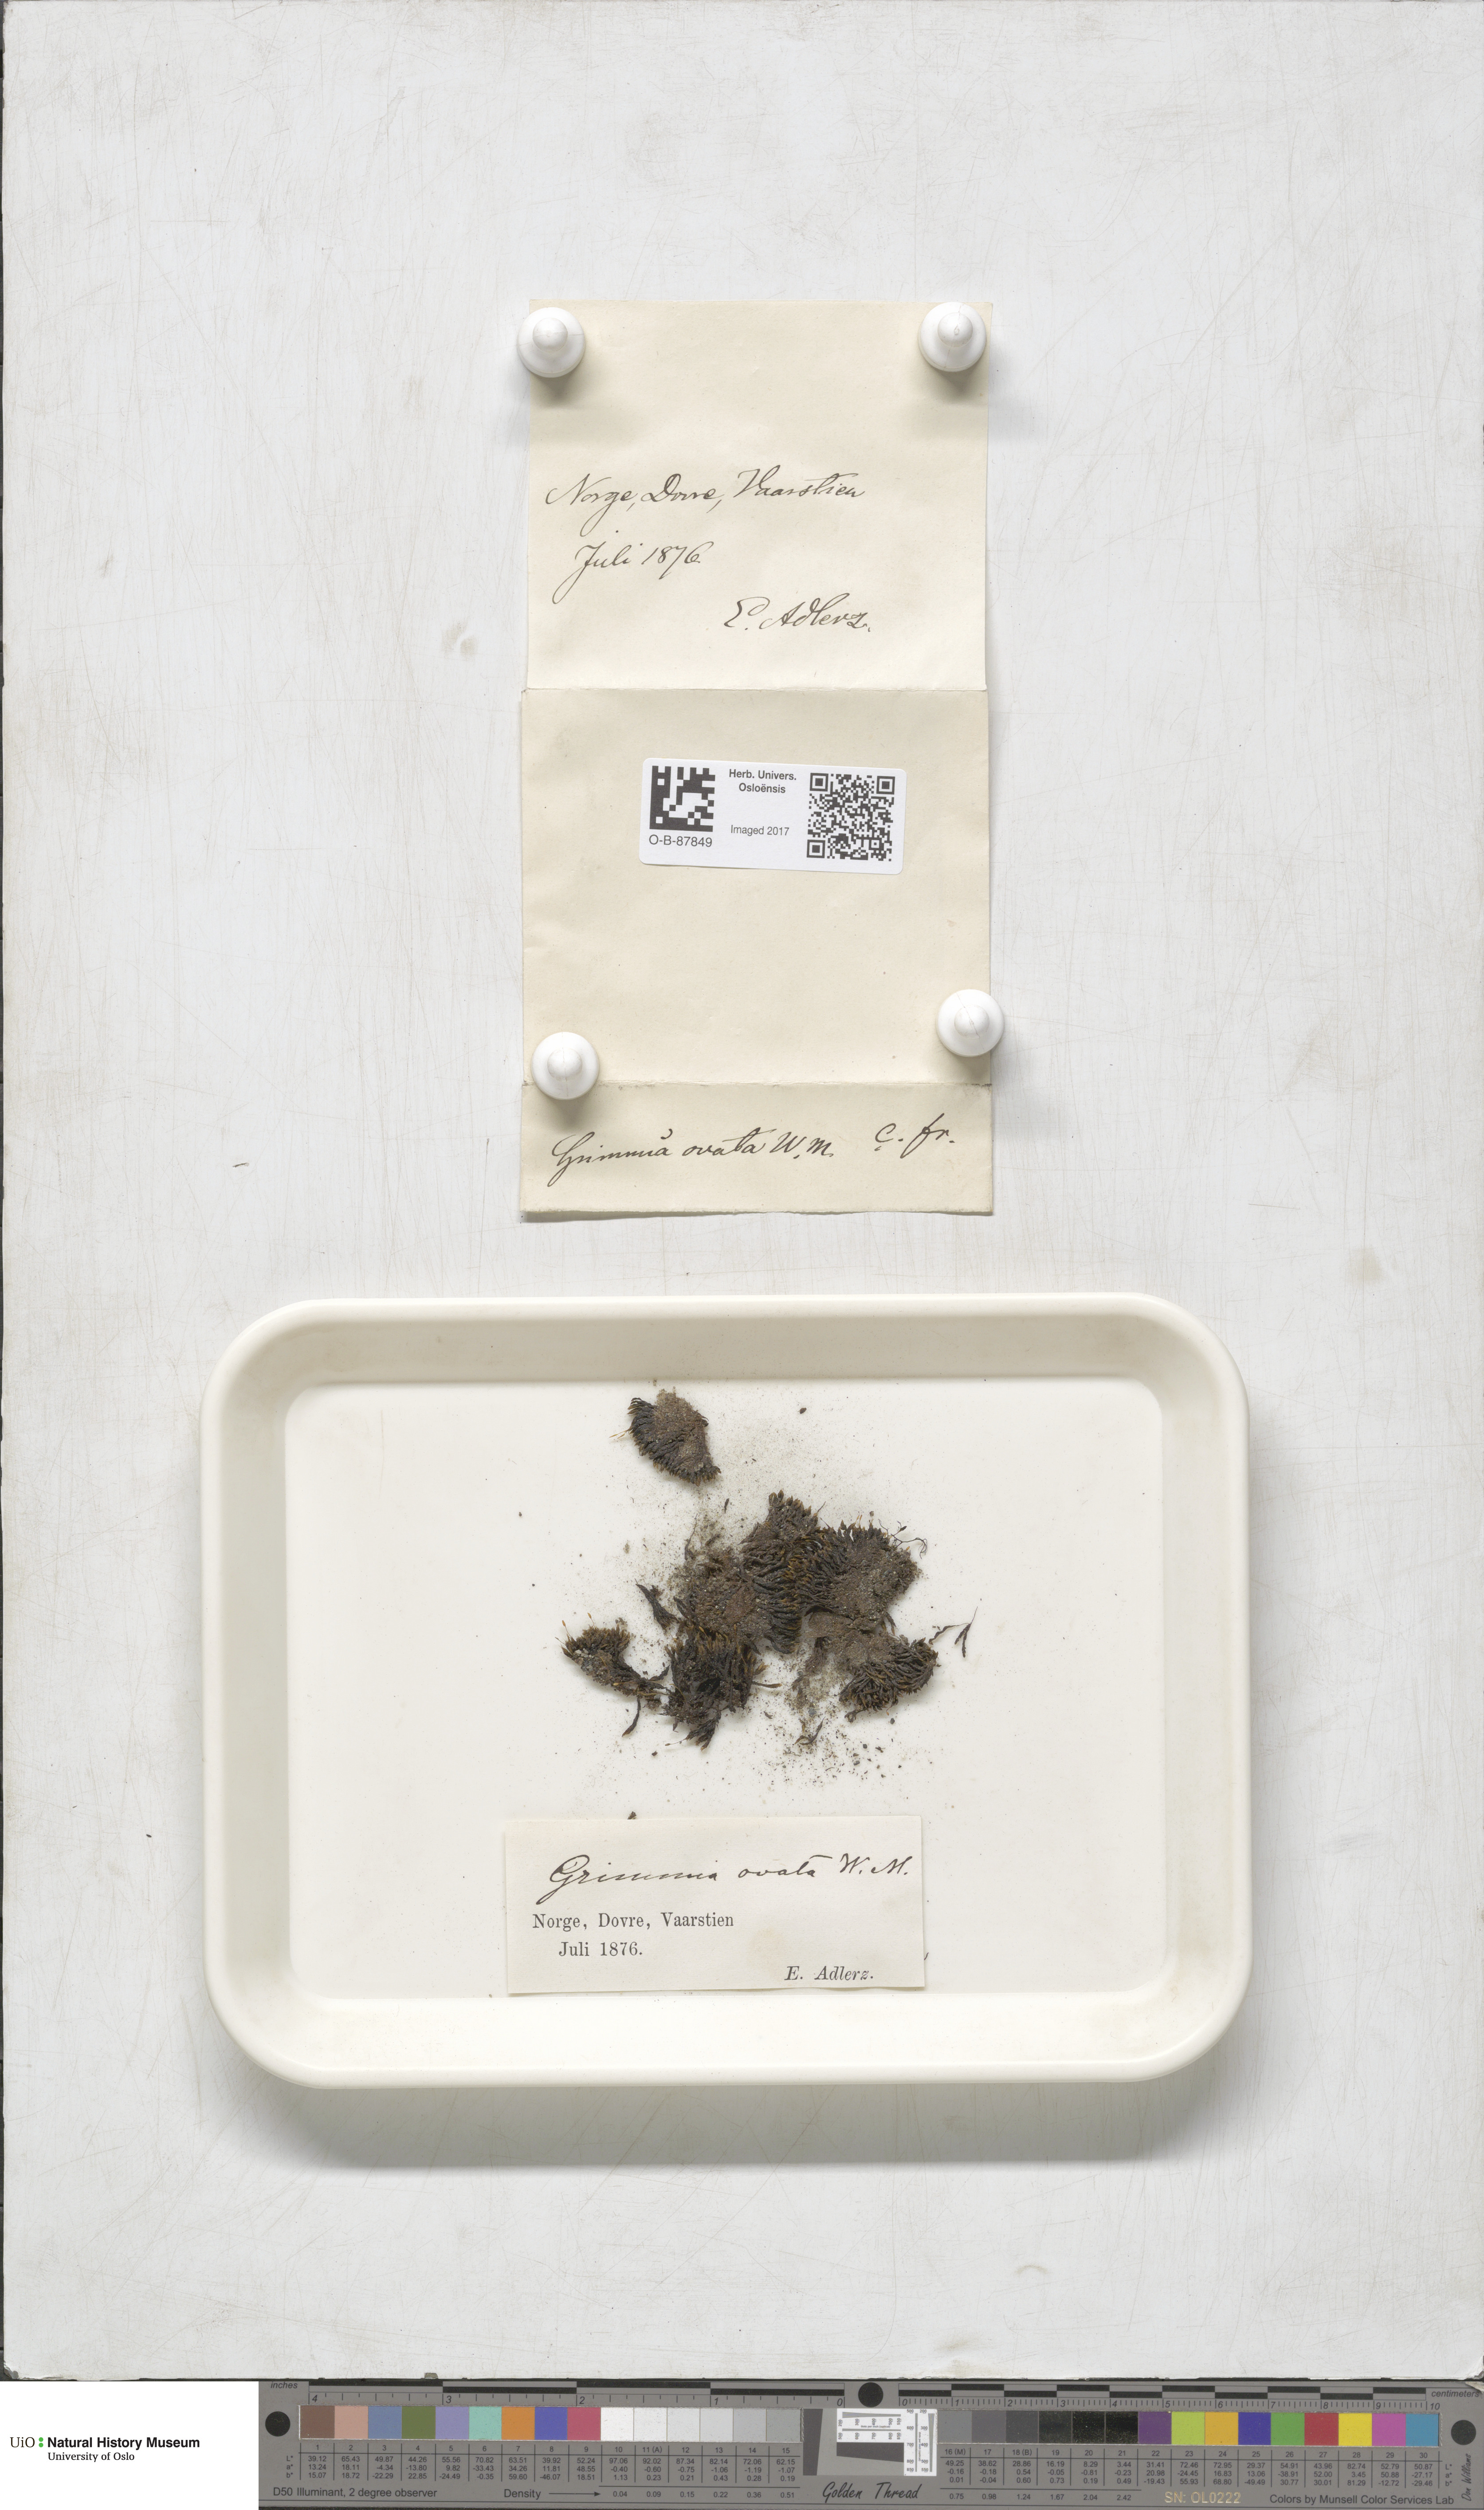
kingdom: Plantae
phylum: Bryophyta
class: Bryopsida
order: Grimmiales
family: Grimmiaceae
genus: Grimmia
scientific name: Grimmia ovalis
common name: Oval grimmia
